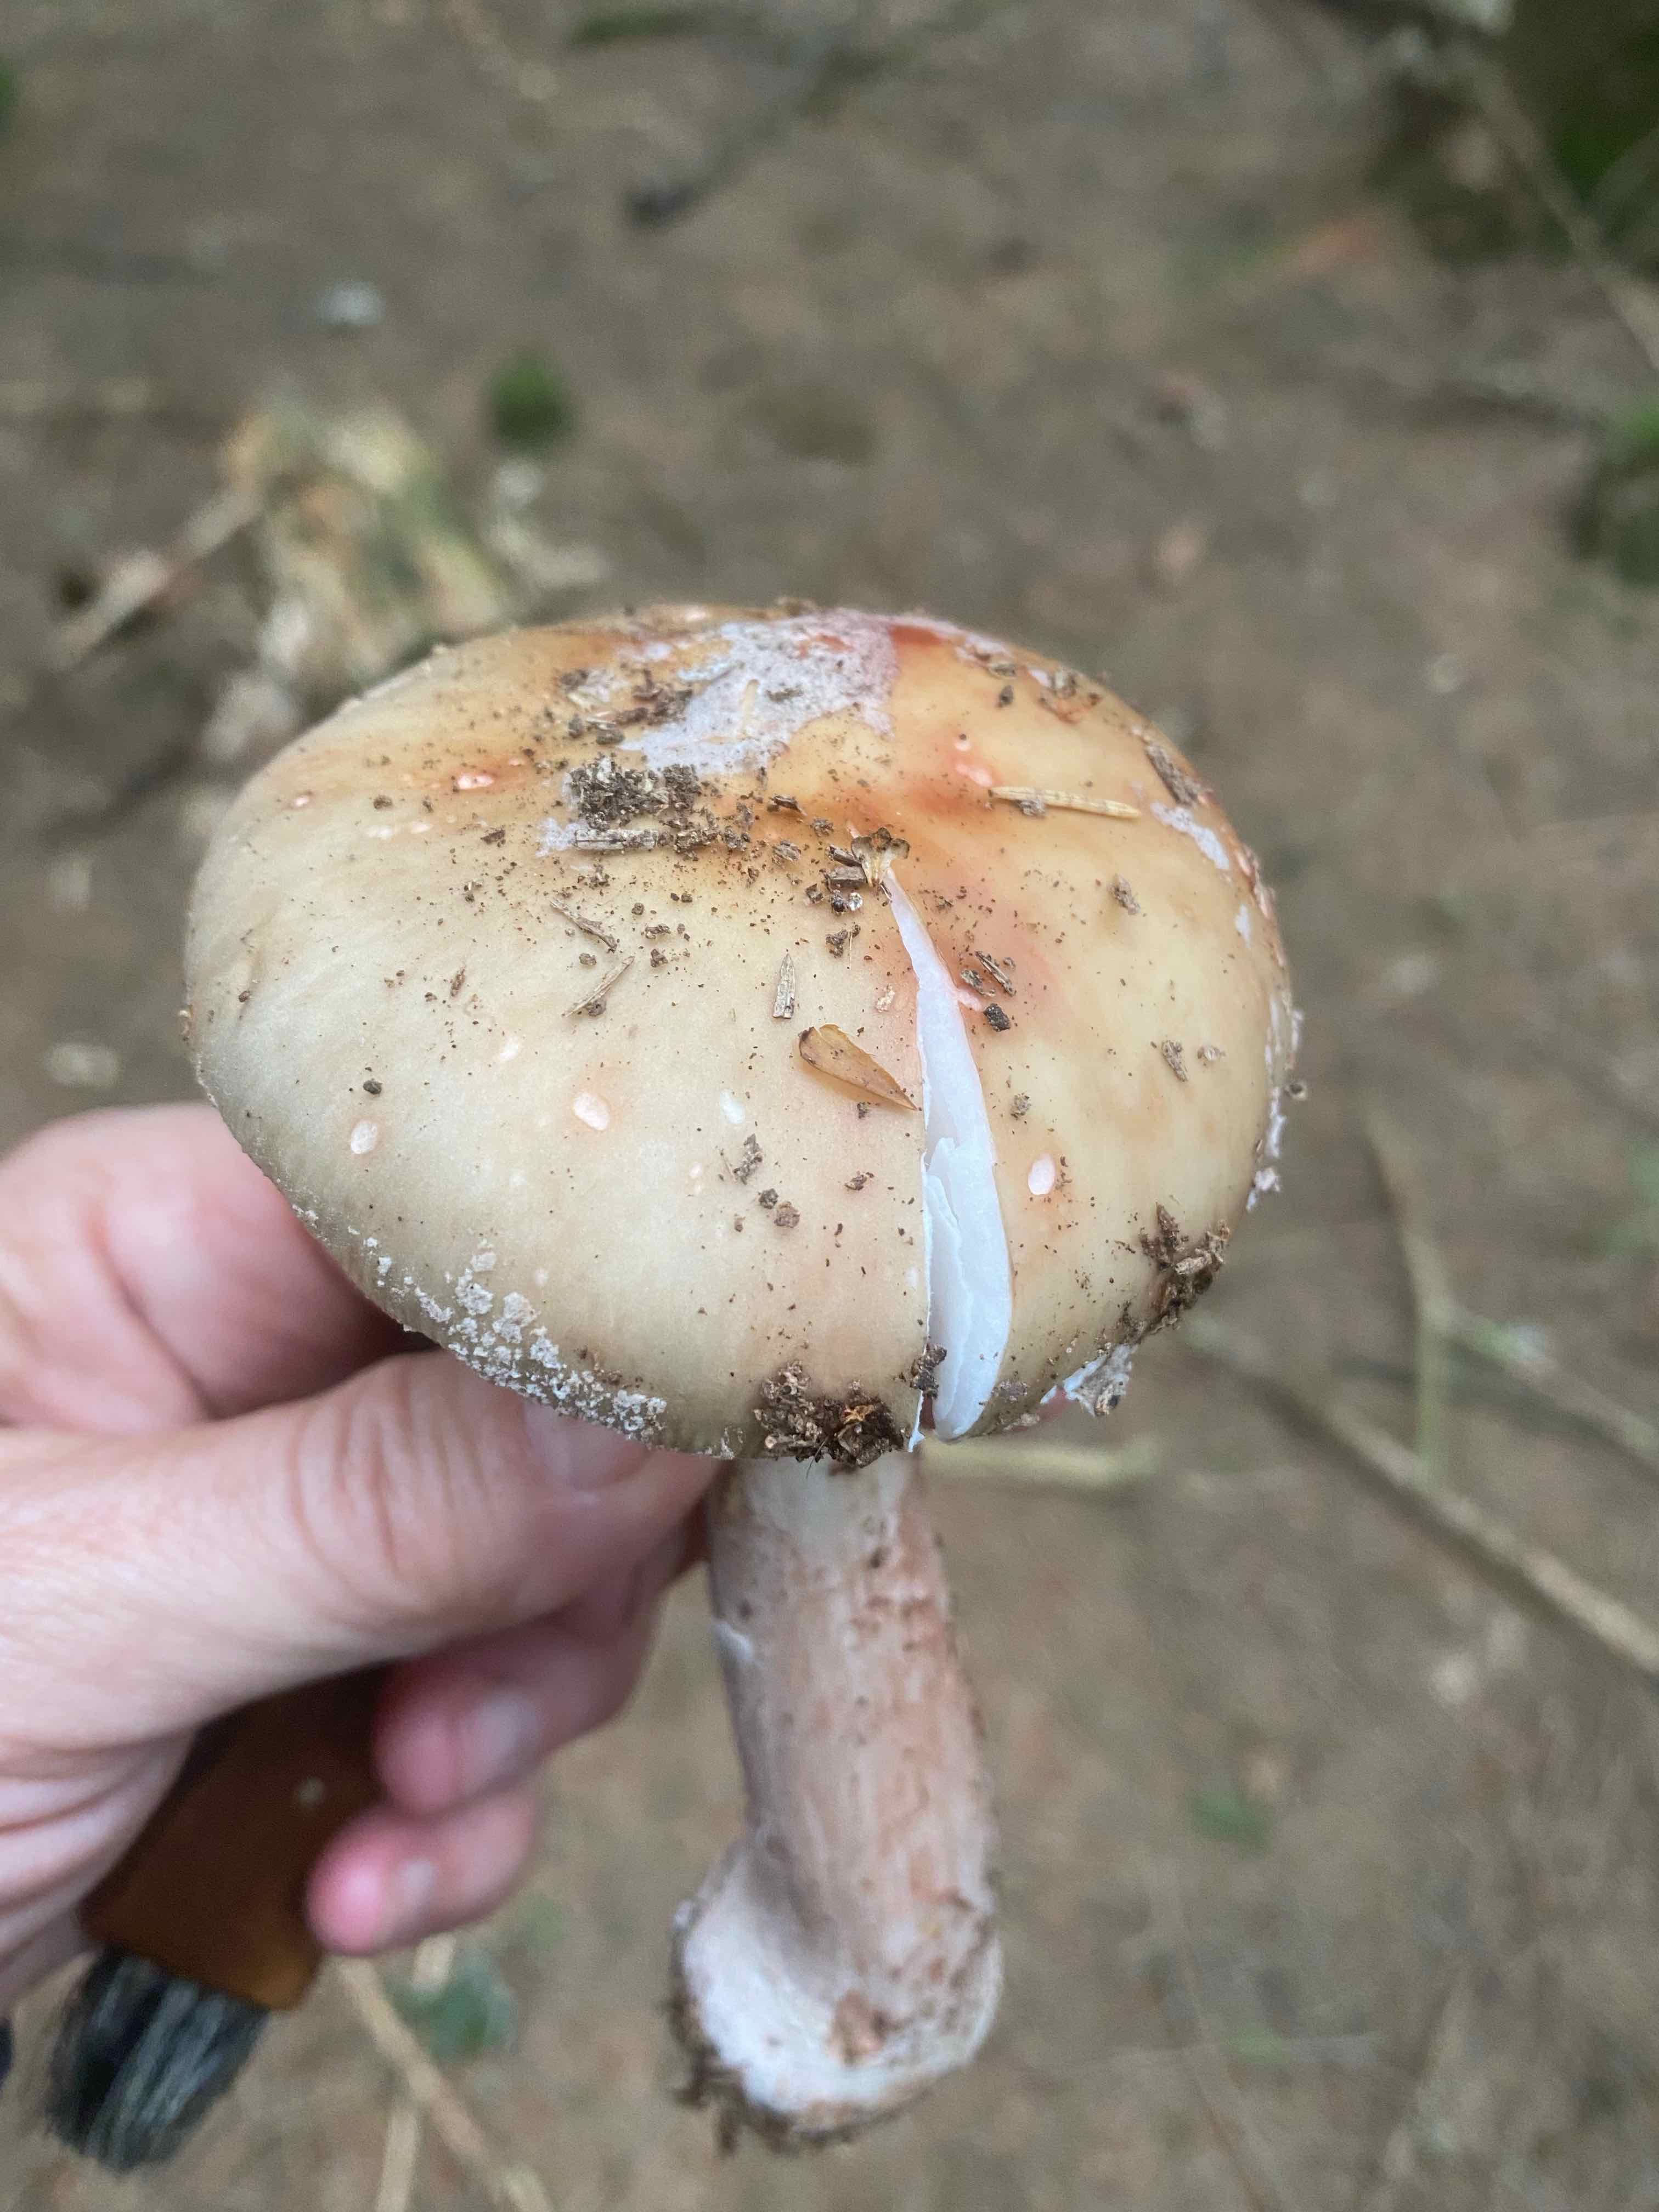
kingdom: Fungi
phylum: Basidiomycota
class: Agaricomycetes
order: Agaricales
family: Amanitaceae
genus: Amanita
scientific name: Amanita rubescens
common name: rødmende fluesvamp
